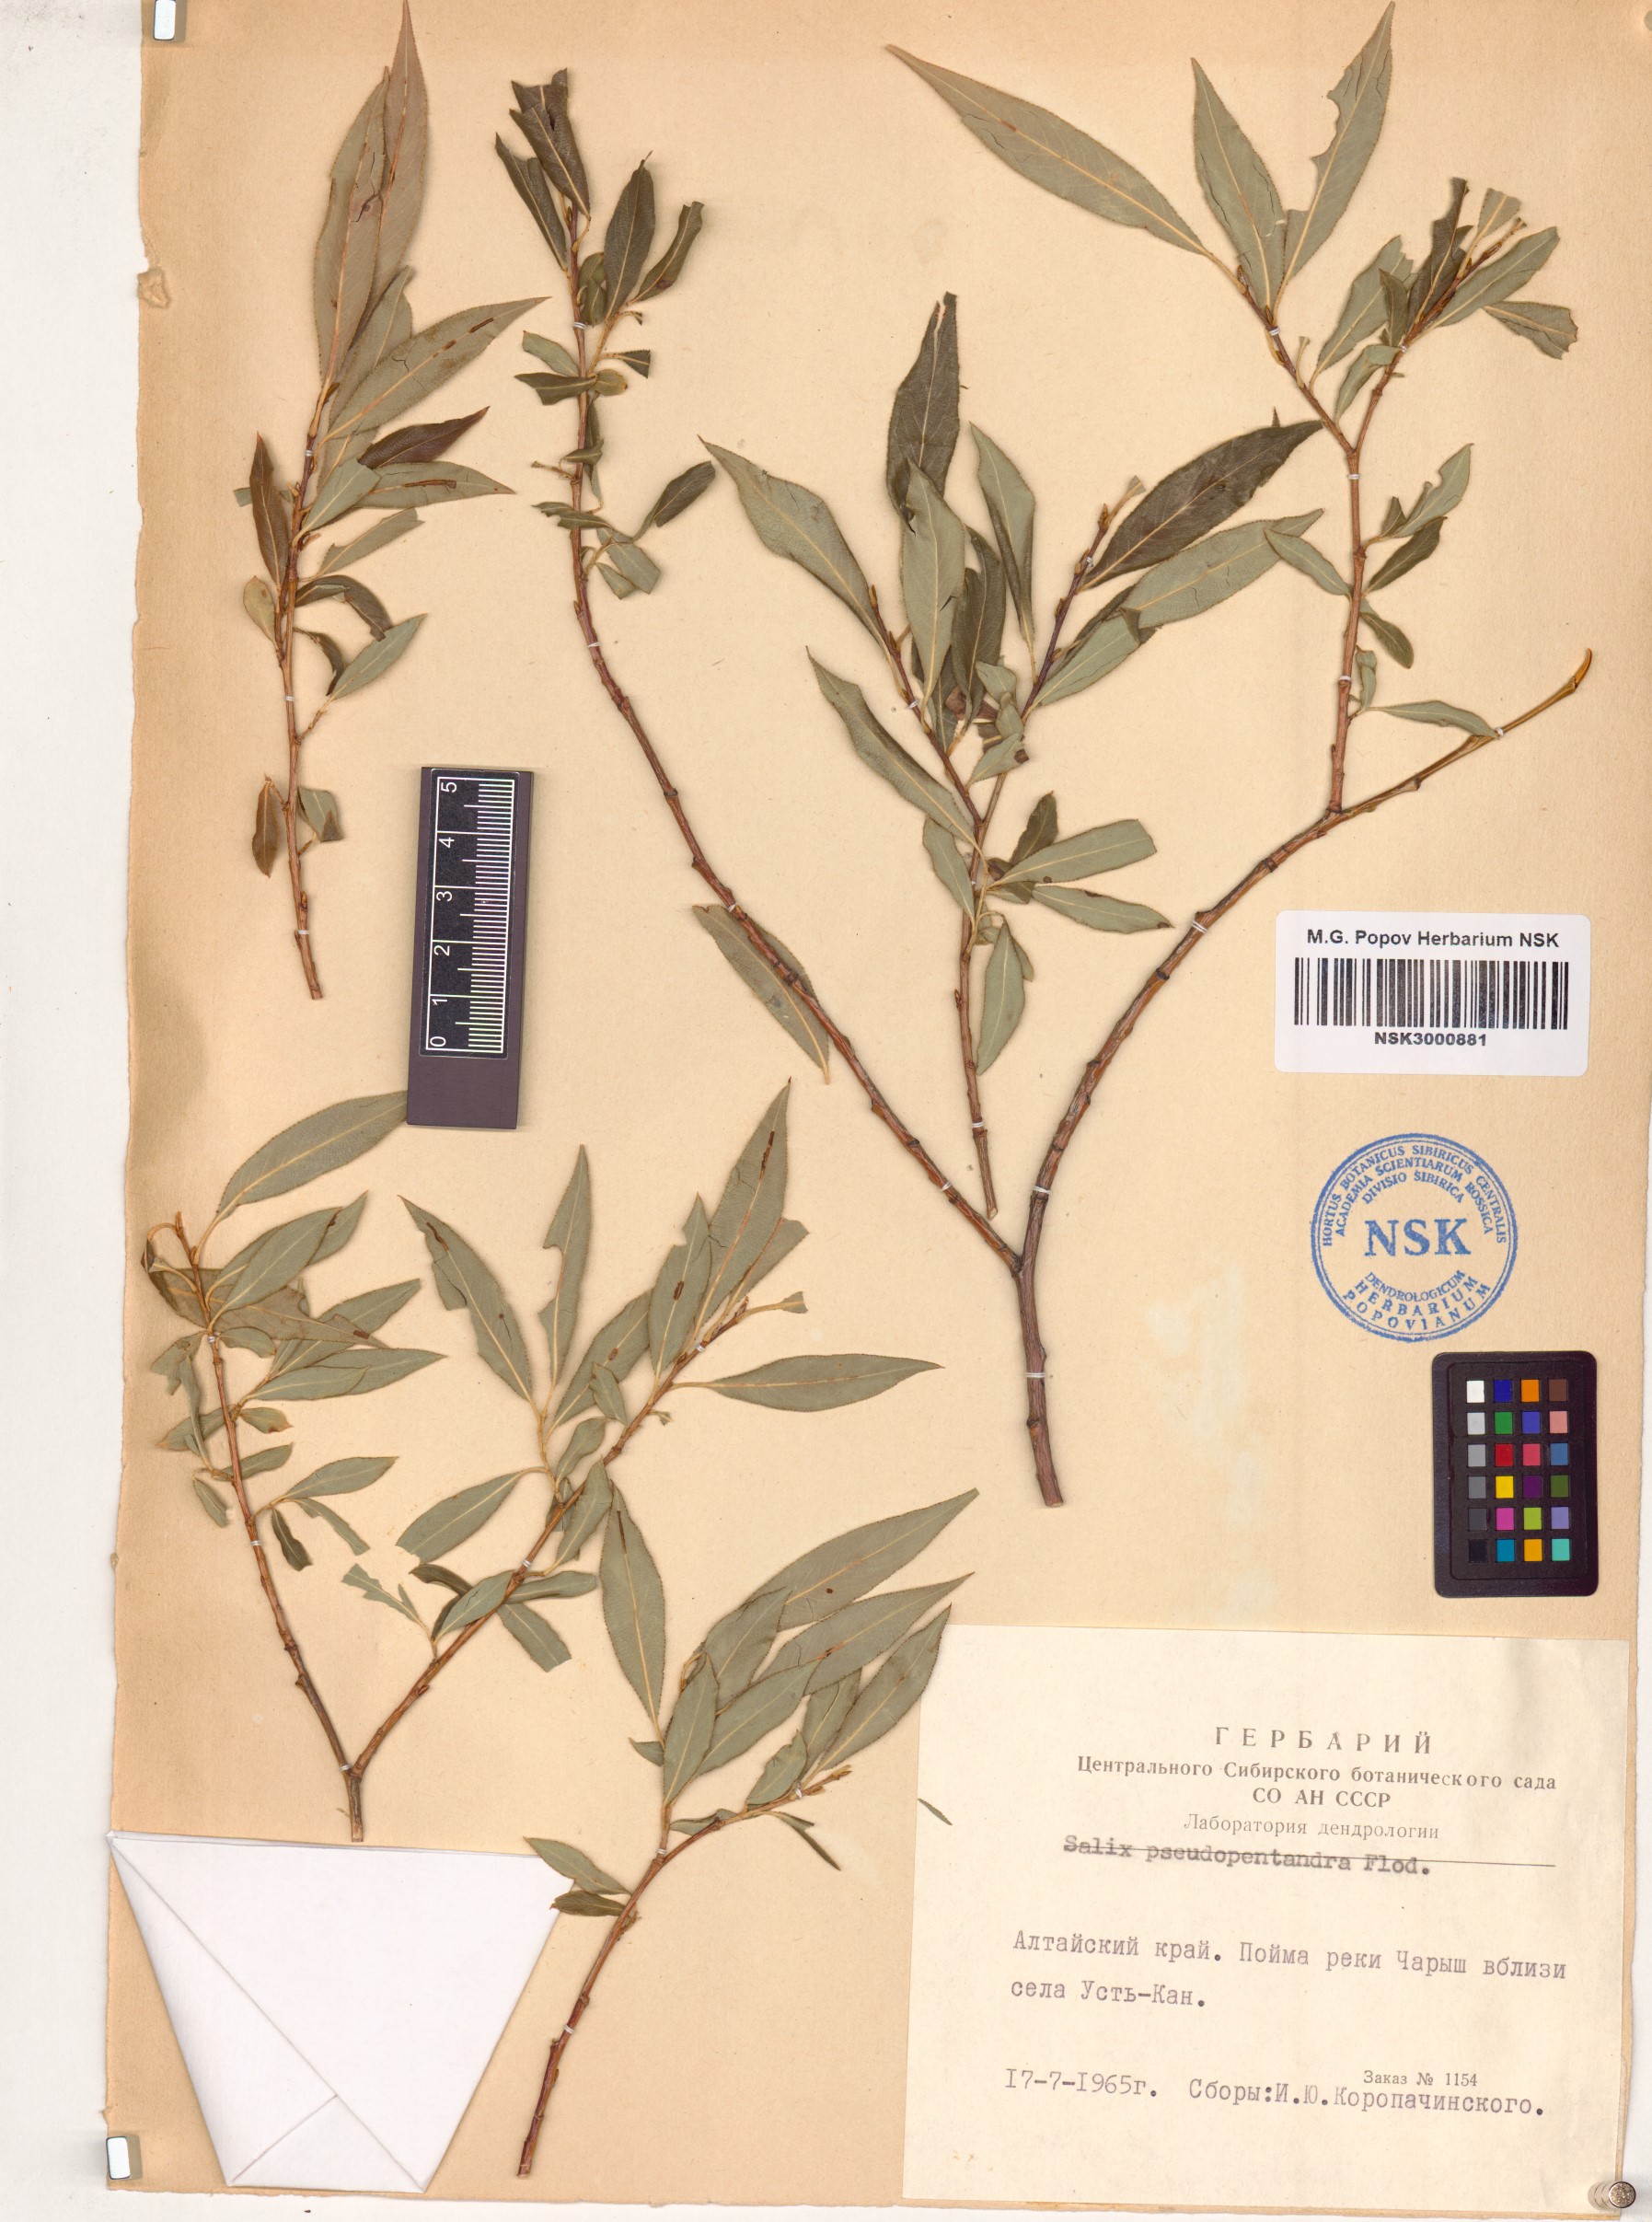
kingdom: Plantae
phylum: Tracheophyta
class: Magnoliopsida
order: Malpighiales
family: Salicaceae
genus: Salix
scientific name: Salix pseudopentandra
